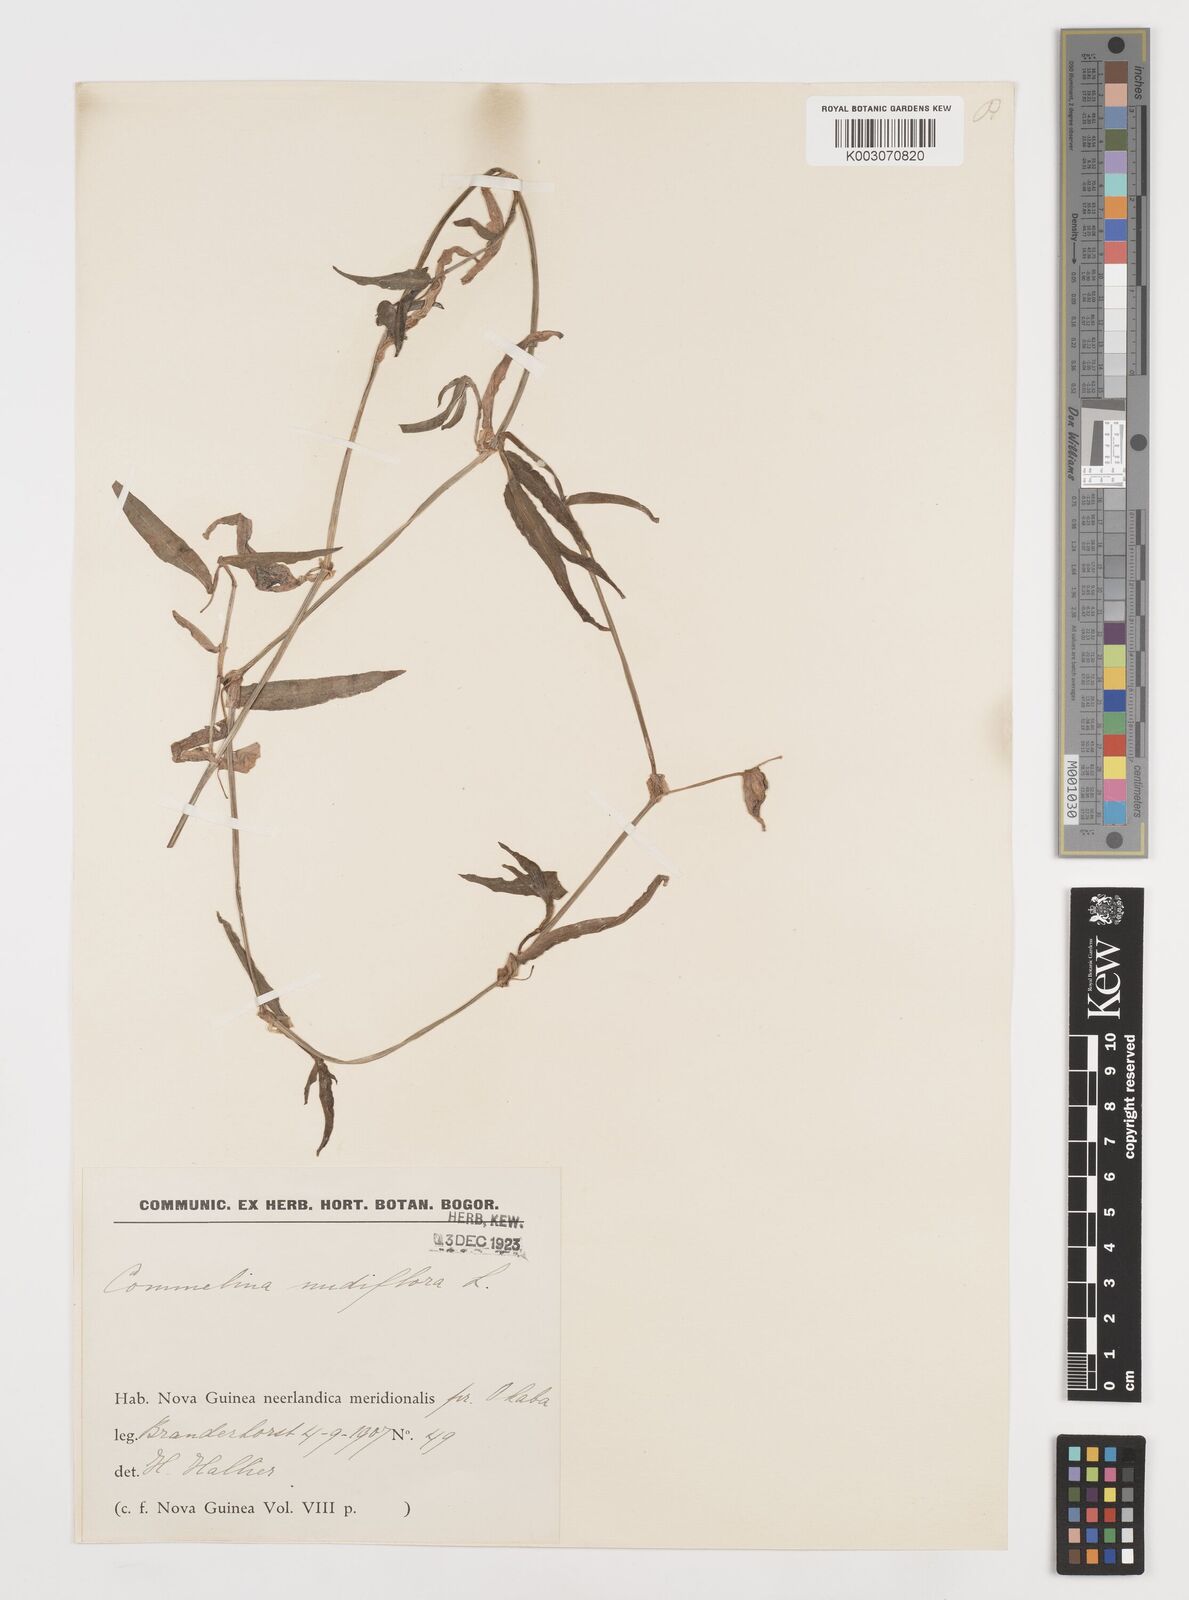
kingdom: Plantae
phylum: Tracheophyta
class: Liliopsida
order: Commelinales
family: Commelinaceae
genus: Murdannia
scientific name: Murdannia nudiflora
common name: Nakedstem dewflower
